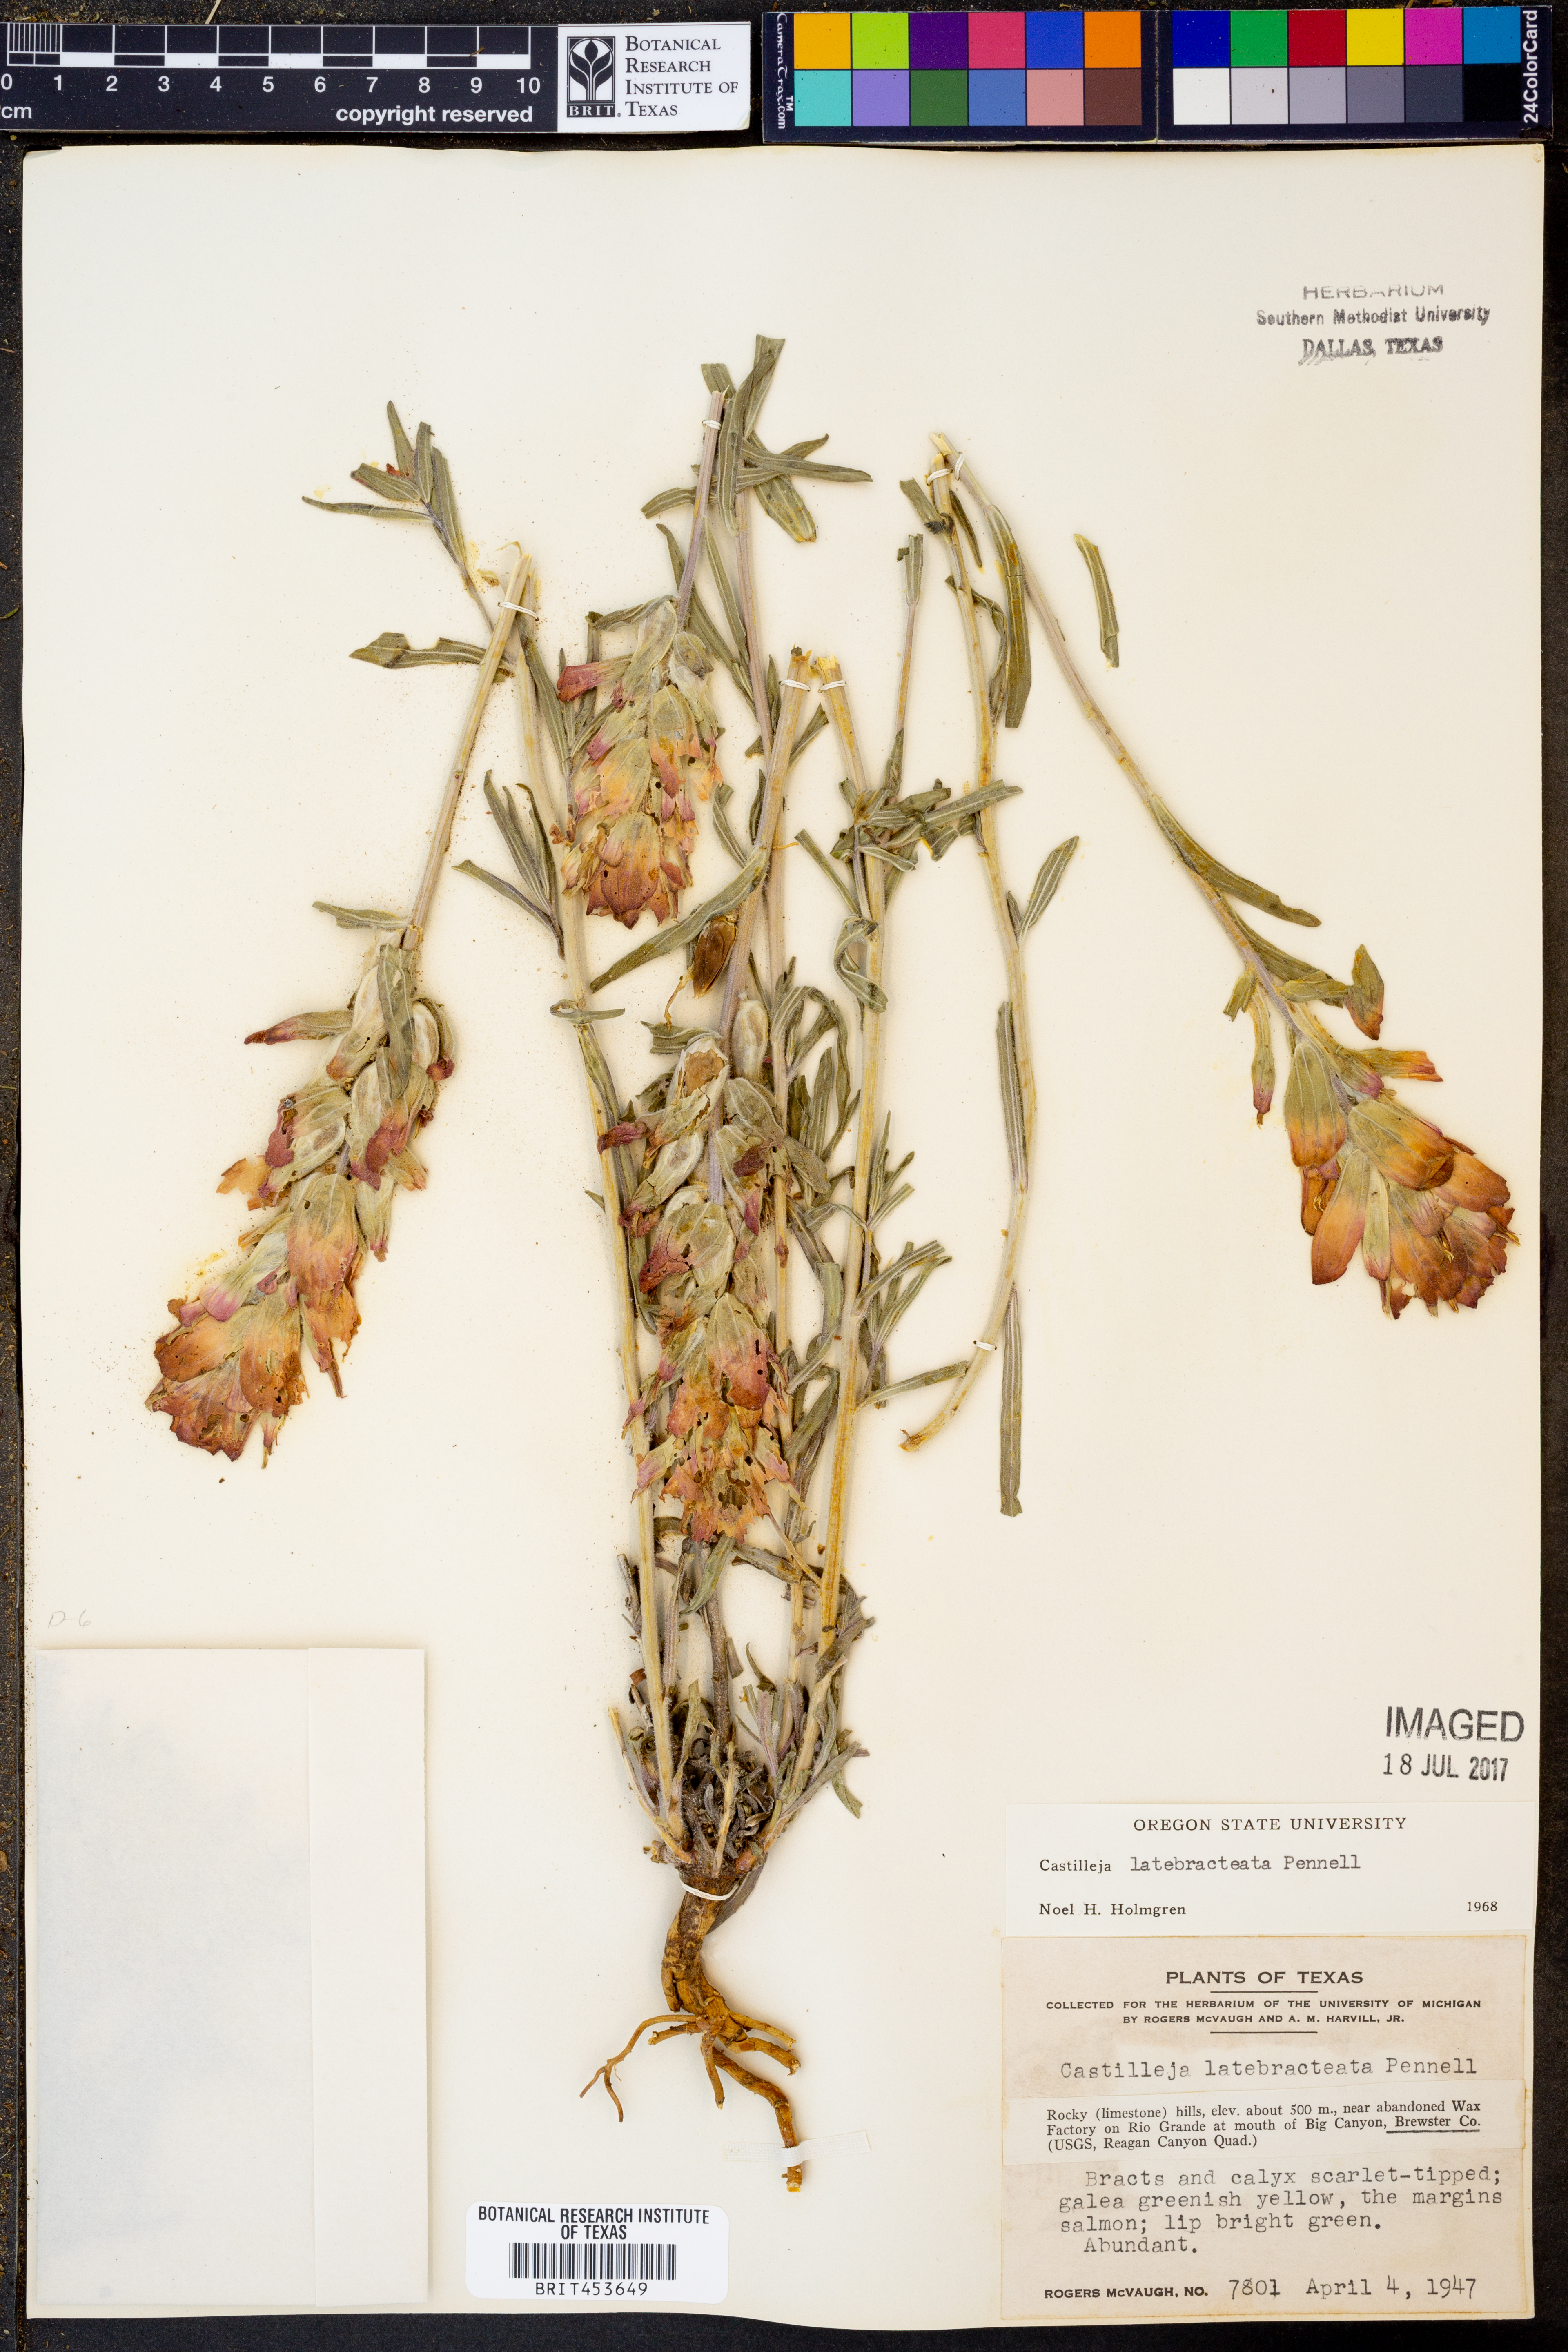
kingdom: Plantae
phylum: Tracheophyta
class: Magnoliopsida
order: Lamiales
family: Orobanchaceae
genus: Castilleja
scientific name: Castilleja rigida
